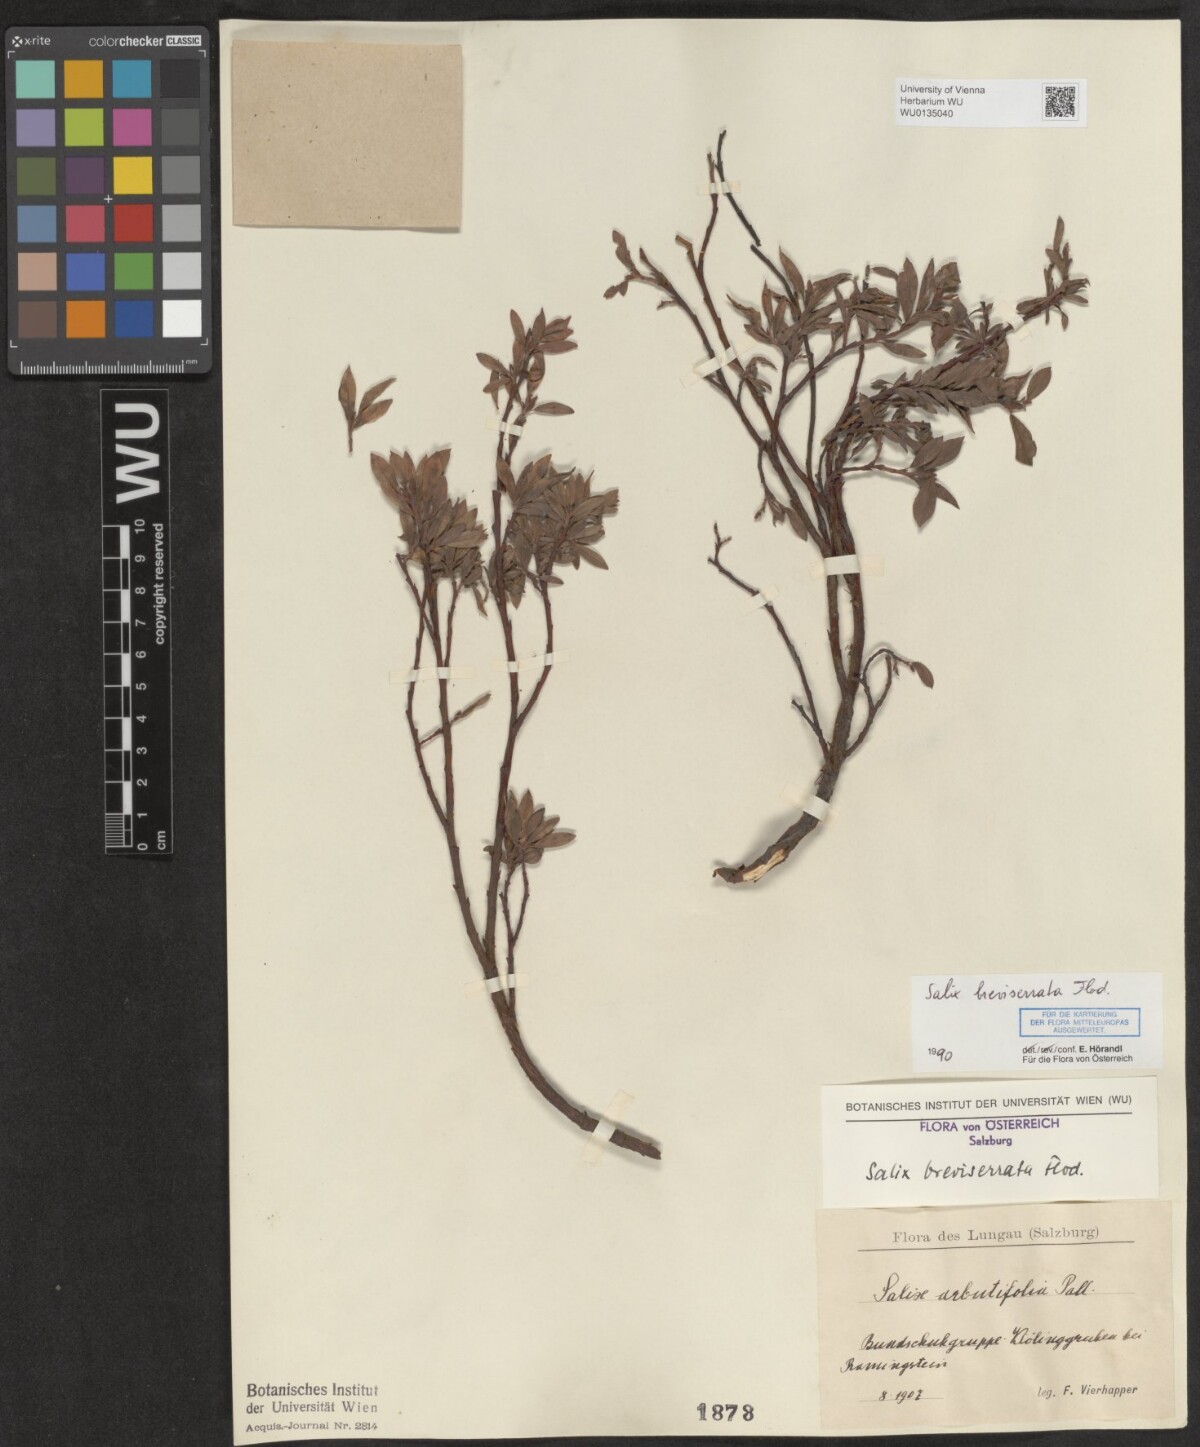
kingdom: Plantae
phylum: Tracheophyta
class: Magnoliopsida
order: Malpighiales
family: Salicaceae
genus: Salix
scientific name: Salix breviserrata
